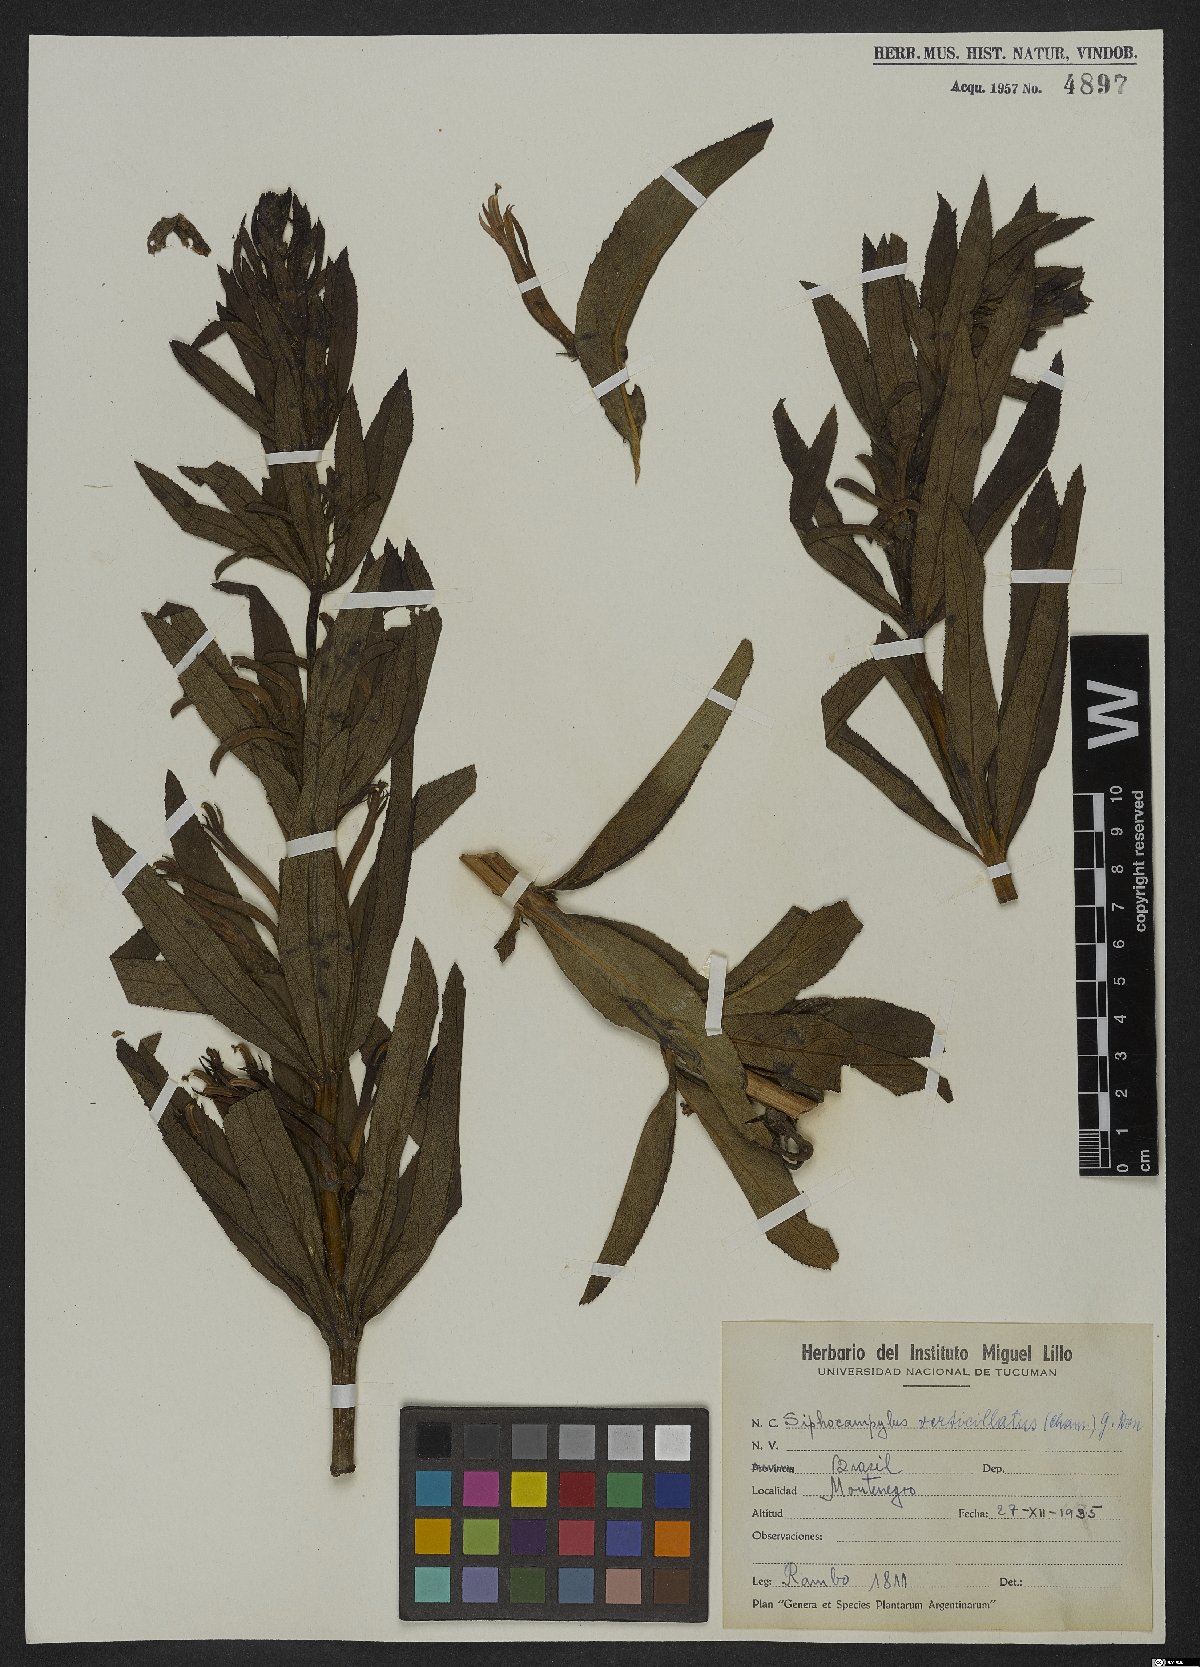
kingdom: Plantae
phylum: Tracheophyta
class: Magnoliopsida
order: Asterales
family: Campanulaceae
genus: Siphocampylus
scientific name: Siphocampylus verticillatus
